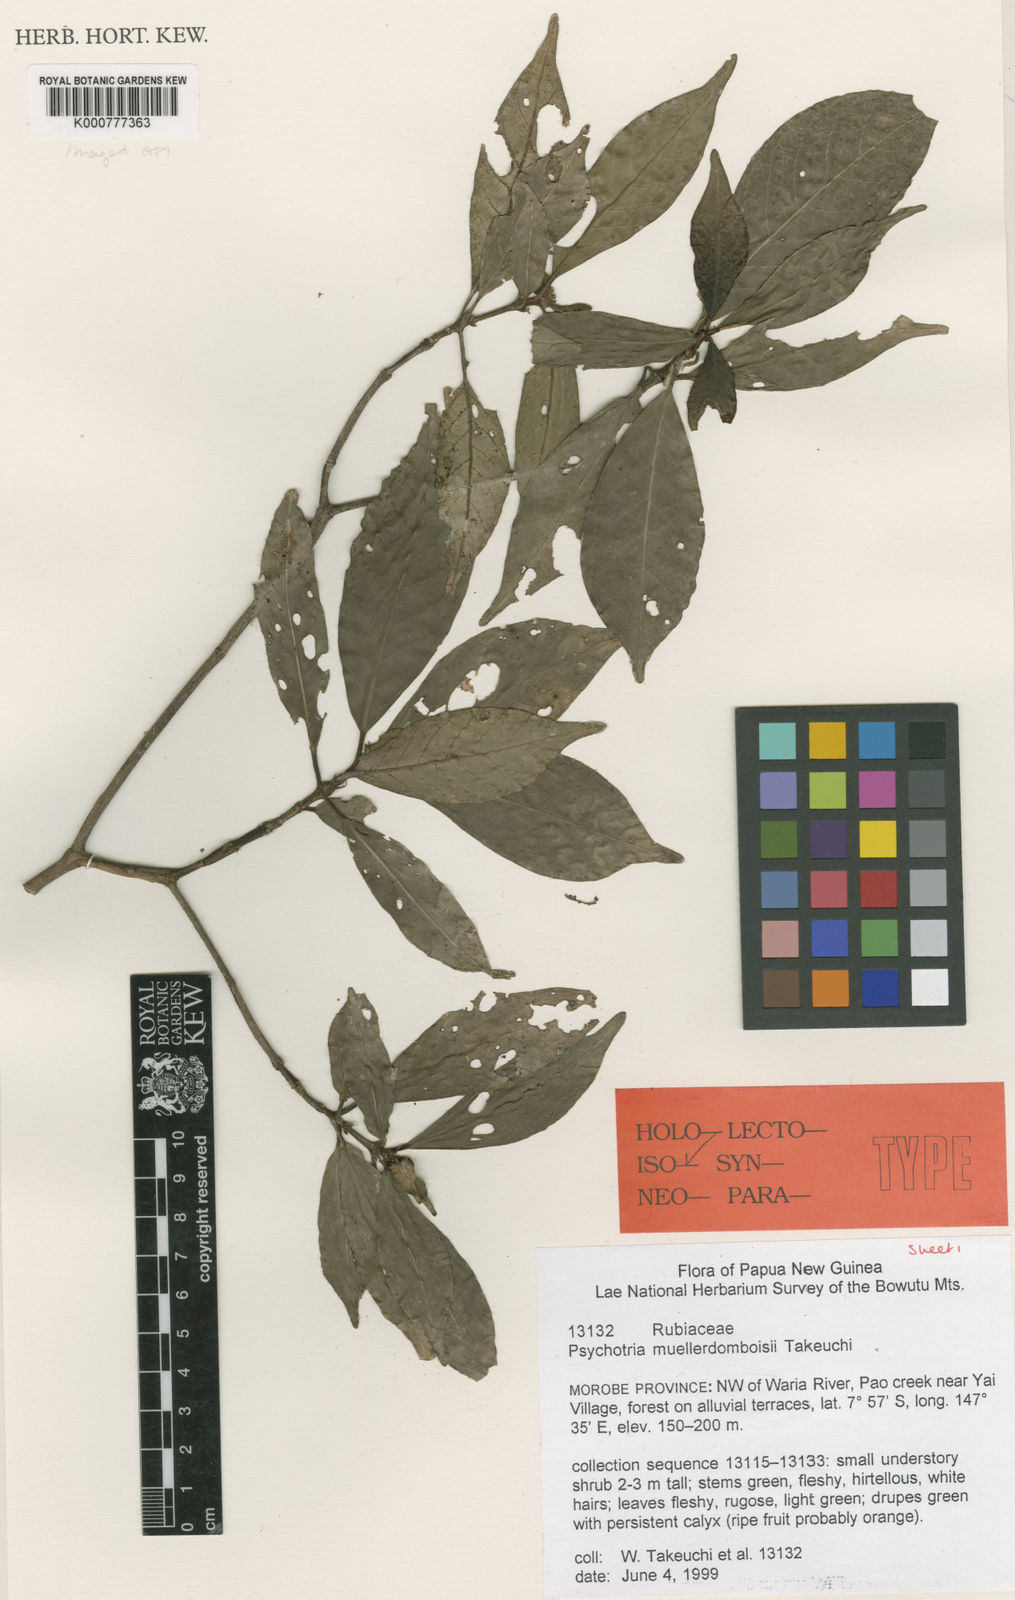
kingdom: Plantae
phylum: Tracheophyta
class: Magnoliopsida
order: Gentianales
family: Rubiaceae
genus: Psychotria
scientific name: Psychotria muellerdomboisii
